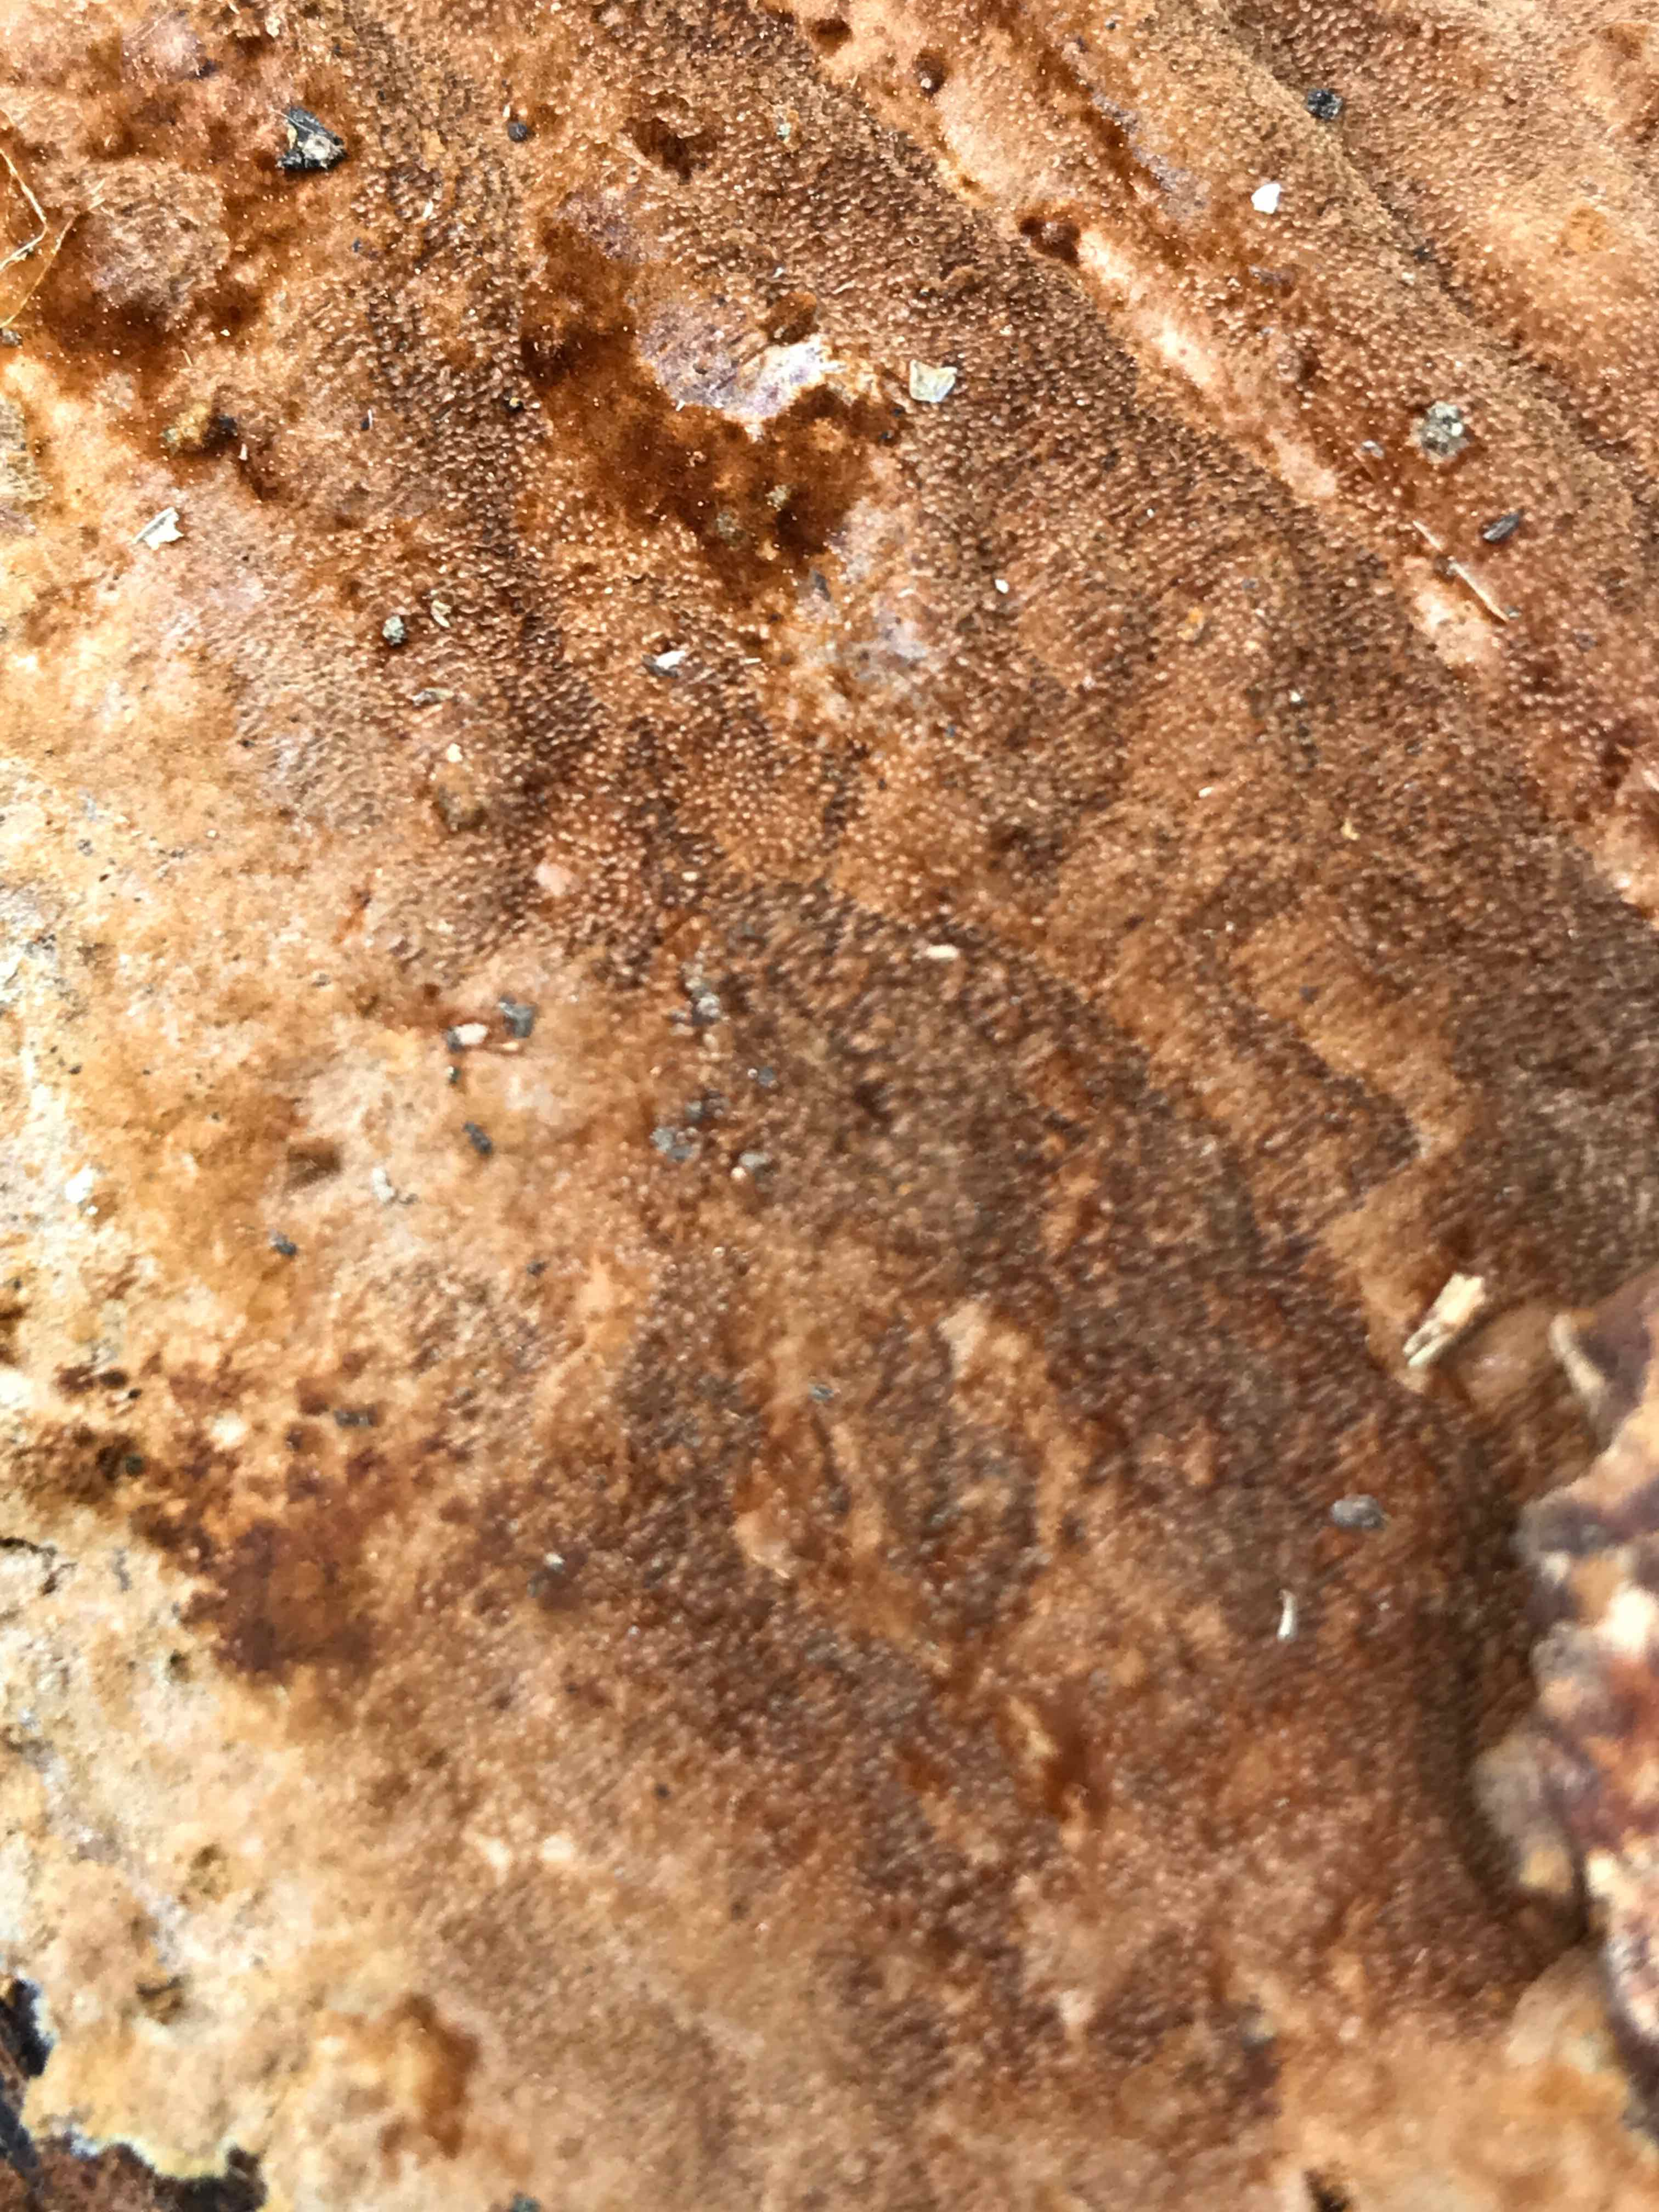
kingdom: Fungi
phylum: Basidiomycota
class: Agaricomycetes
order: Hymenochaetales
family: Hymenochaetaceae
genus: Fuscoporia
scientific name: Fuscoporia ferrea
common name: skorpe-ildporesvamp
